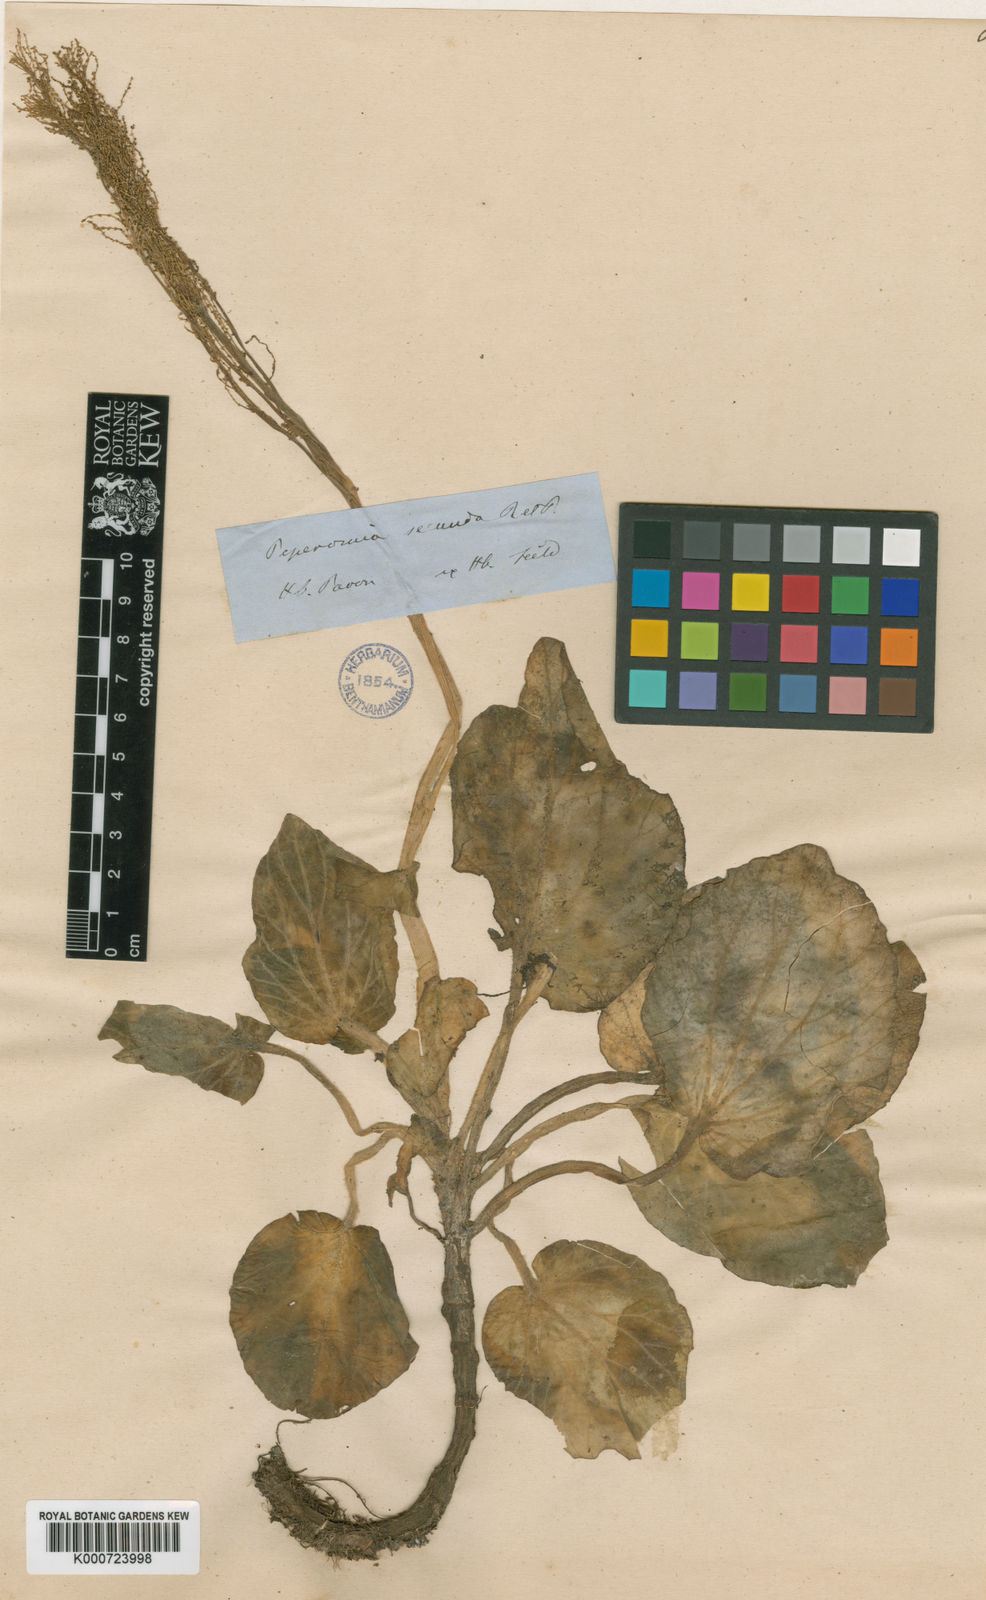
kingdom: Plantae
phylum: Tracheophyta
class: Magnoliopsida
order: Piperales
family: Piperaceae
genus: Peperomia
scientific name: Peperomia secunda
